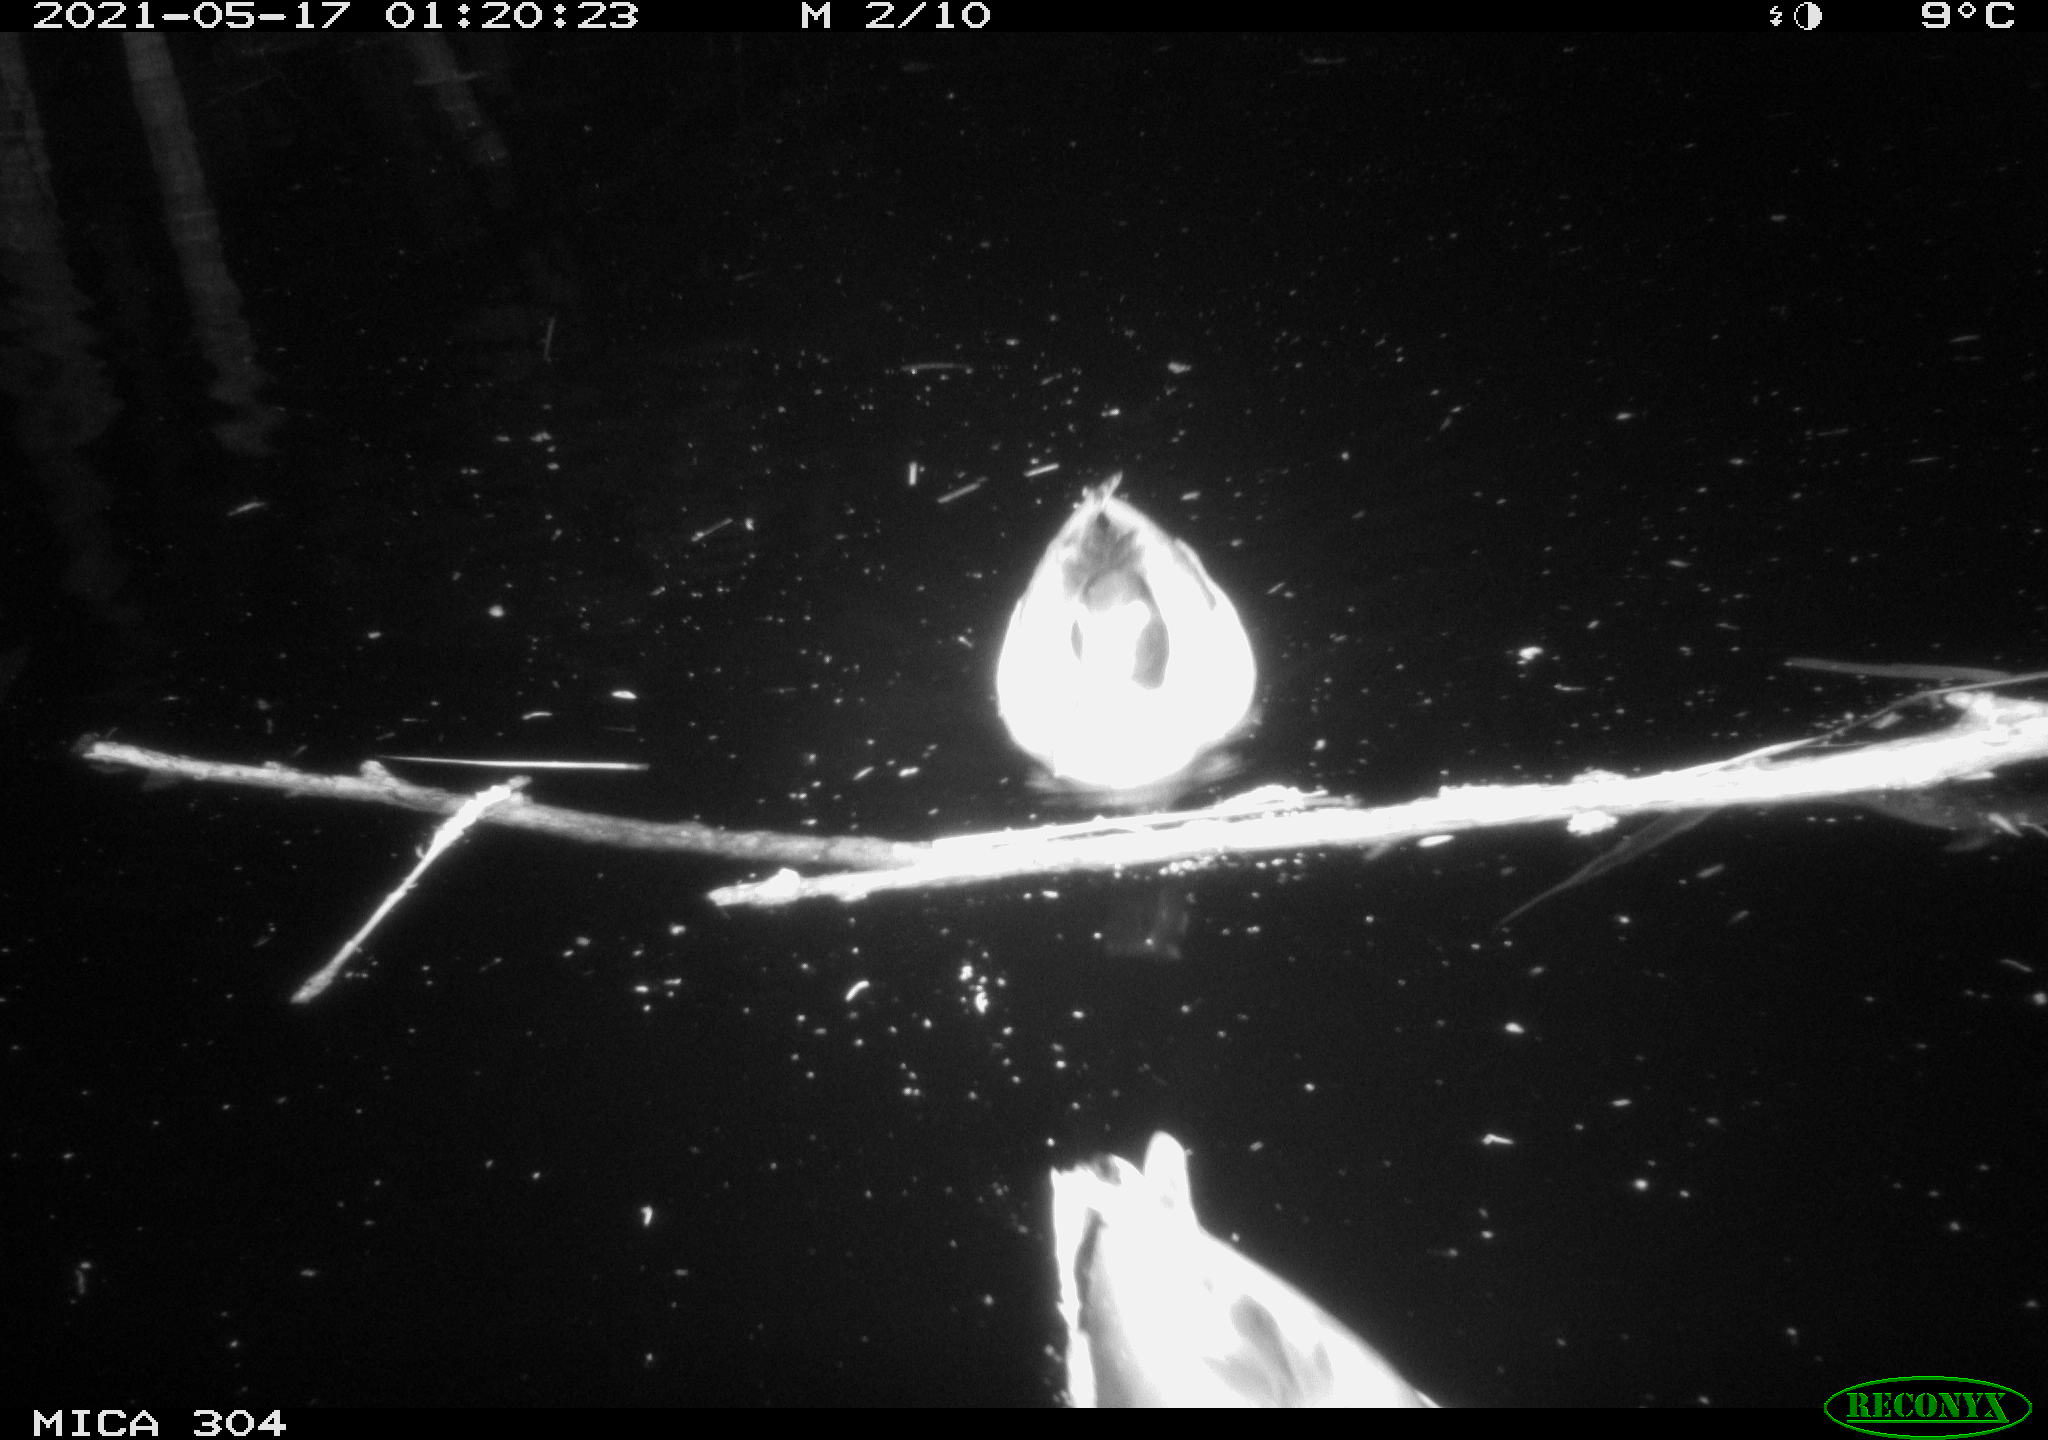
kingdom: Animalia
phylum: Chordata
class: Aves
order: Anseriformes
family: Anatidae
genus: Anas
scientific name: Anas platyrhynchos
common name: Mallard
